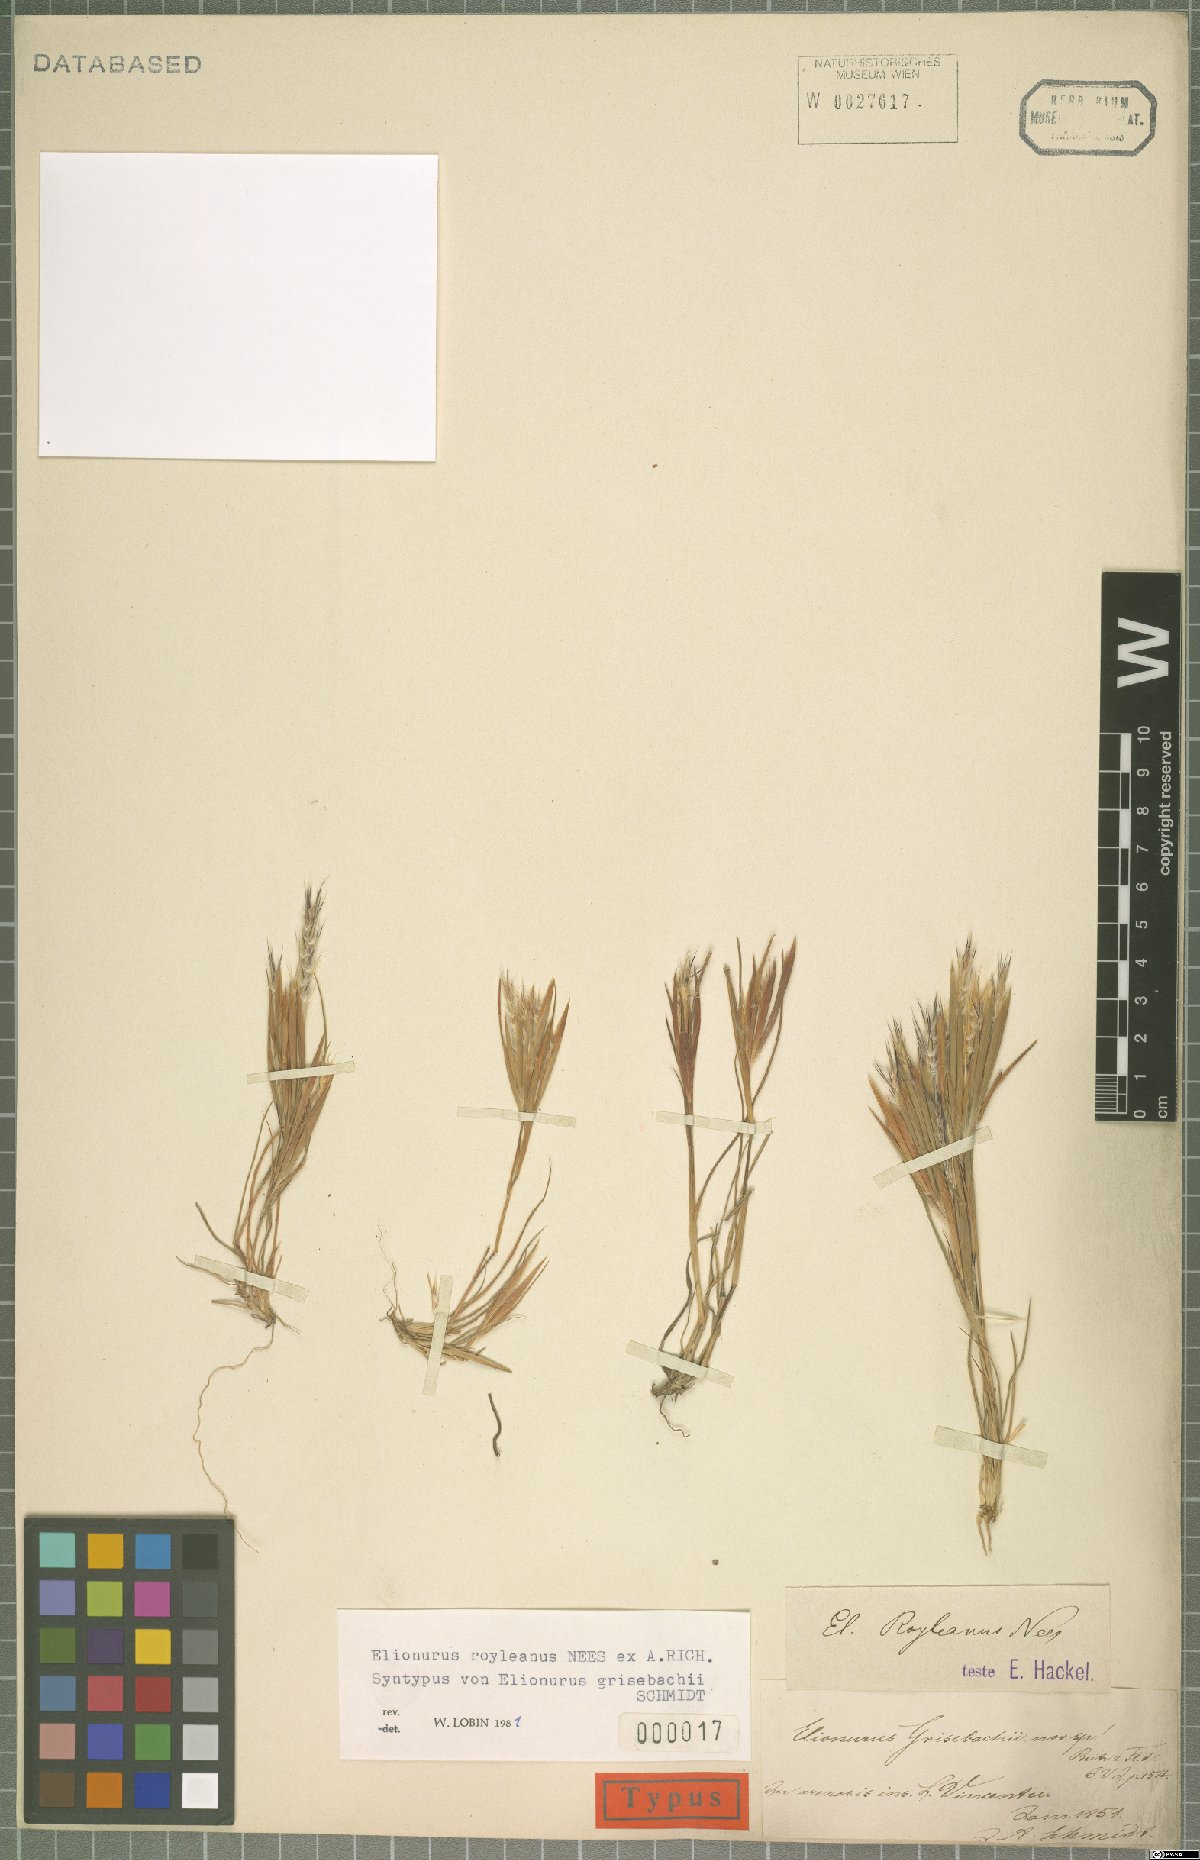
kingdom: Plantae
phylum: Tracheophyta
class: Liliopsida
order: Poales
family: Poaceae
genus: Elionurus
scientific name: Elionurus royleanus
